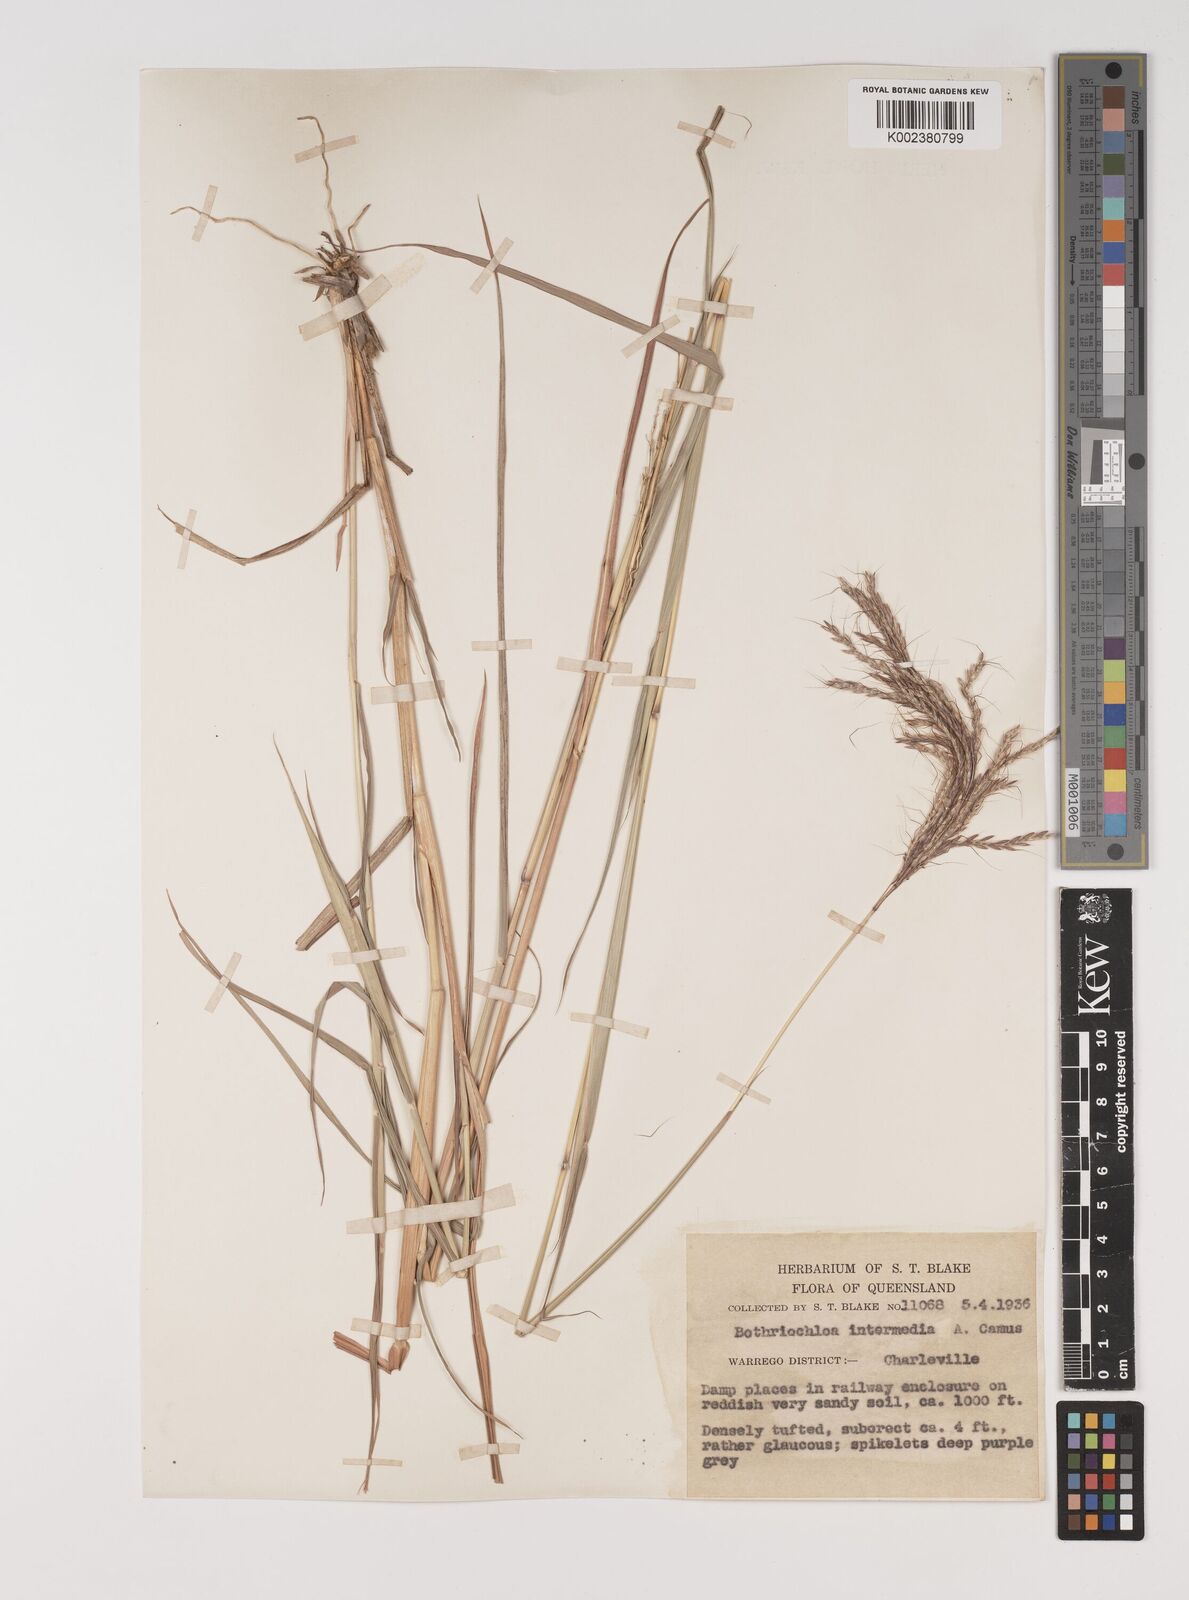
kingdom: Plantae
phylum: Tracheophyta
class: Liliopsida
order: Poales
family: Poaceae
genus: Bothriochloa
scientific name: Bothriochloa bladhii
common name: Caucasian bluestem
